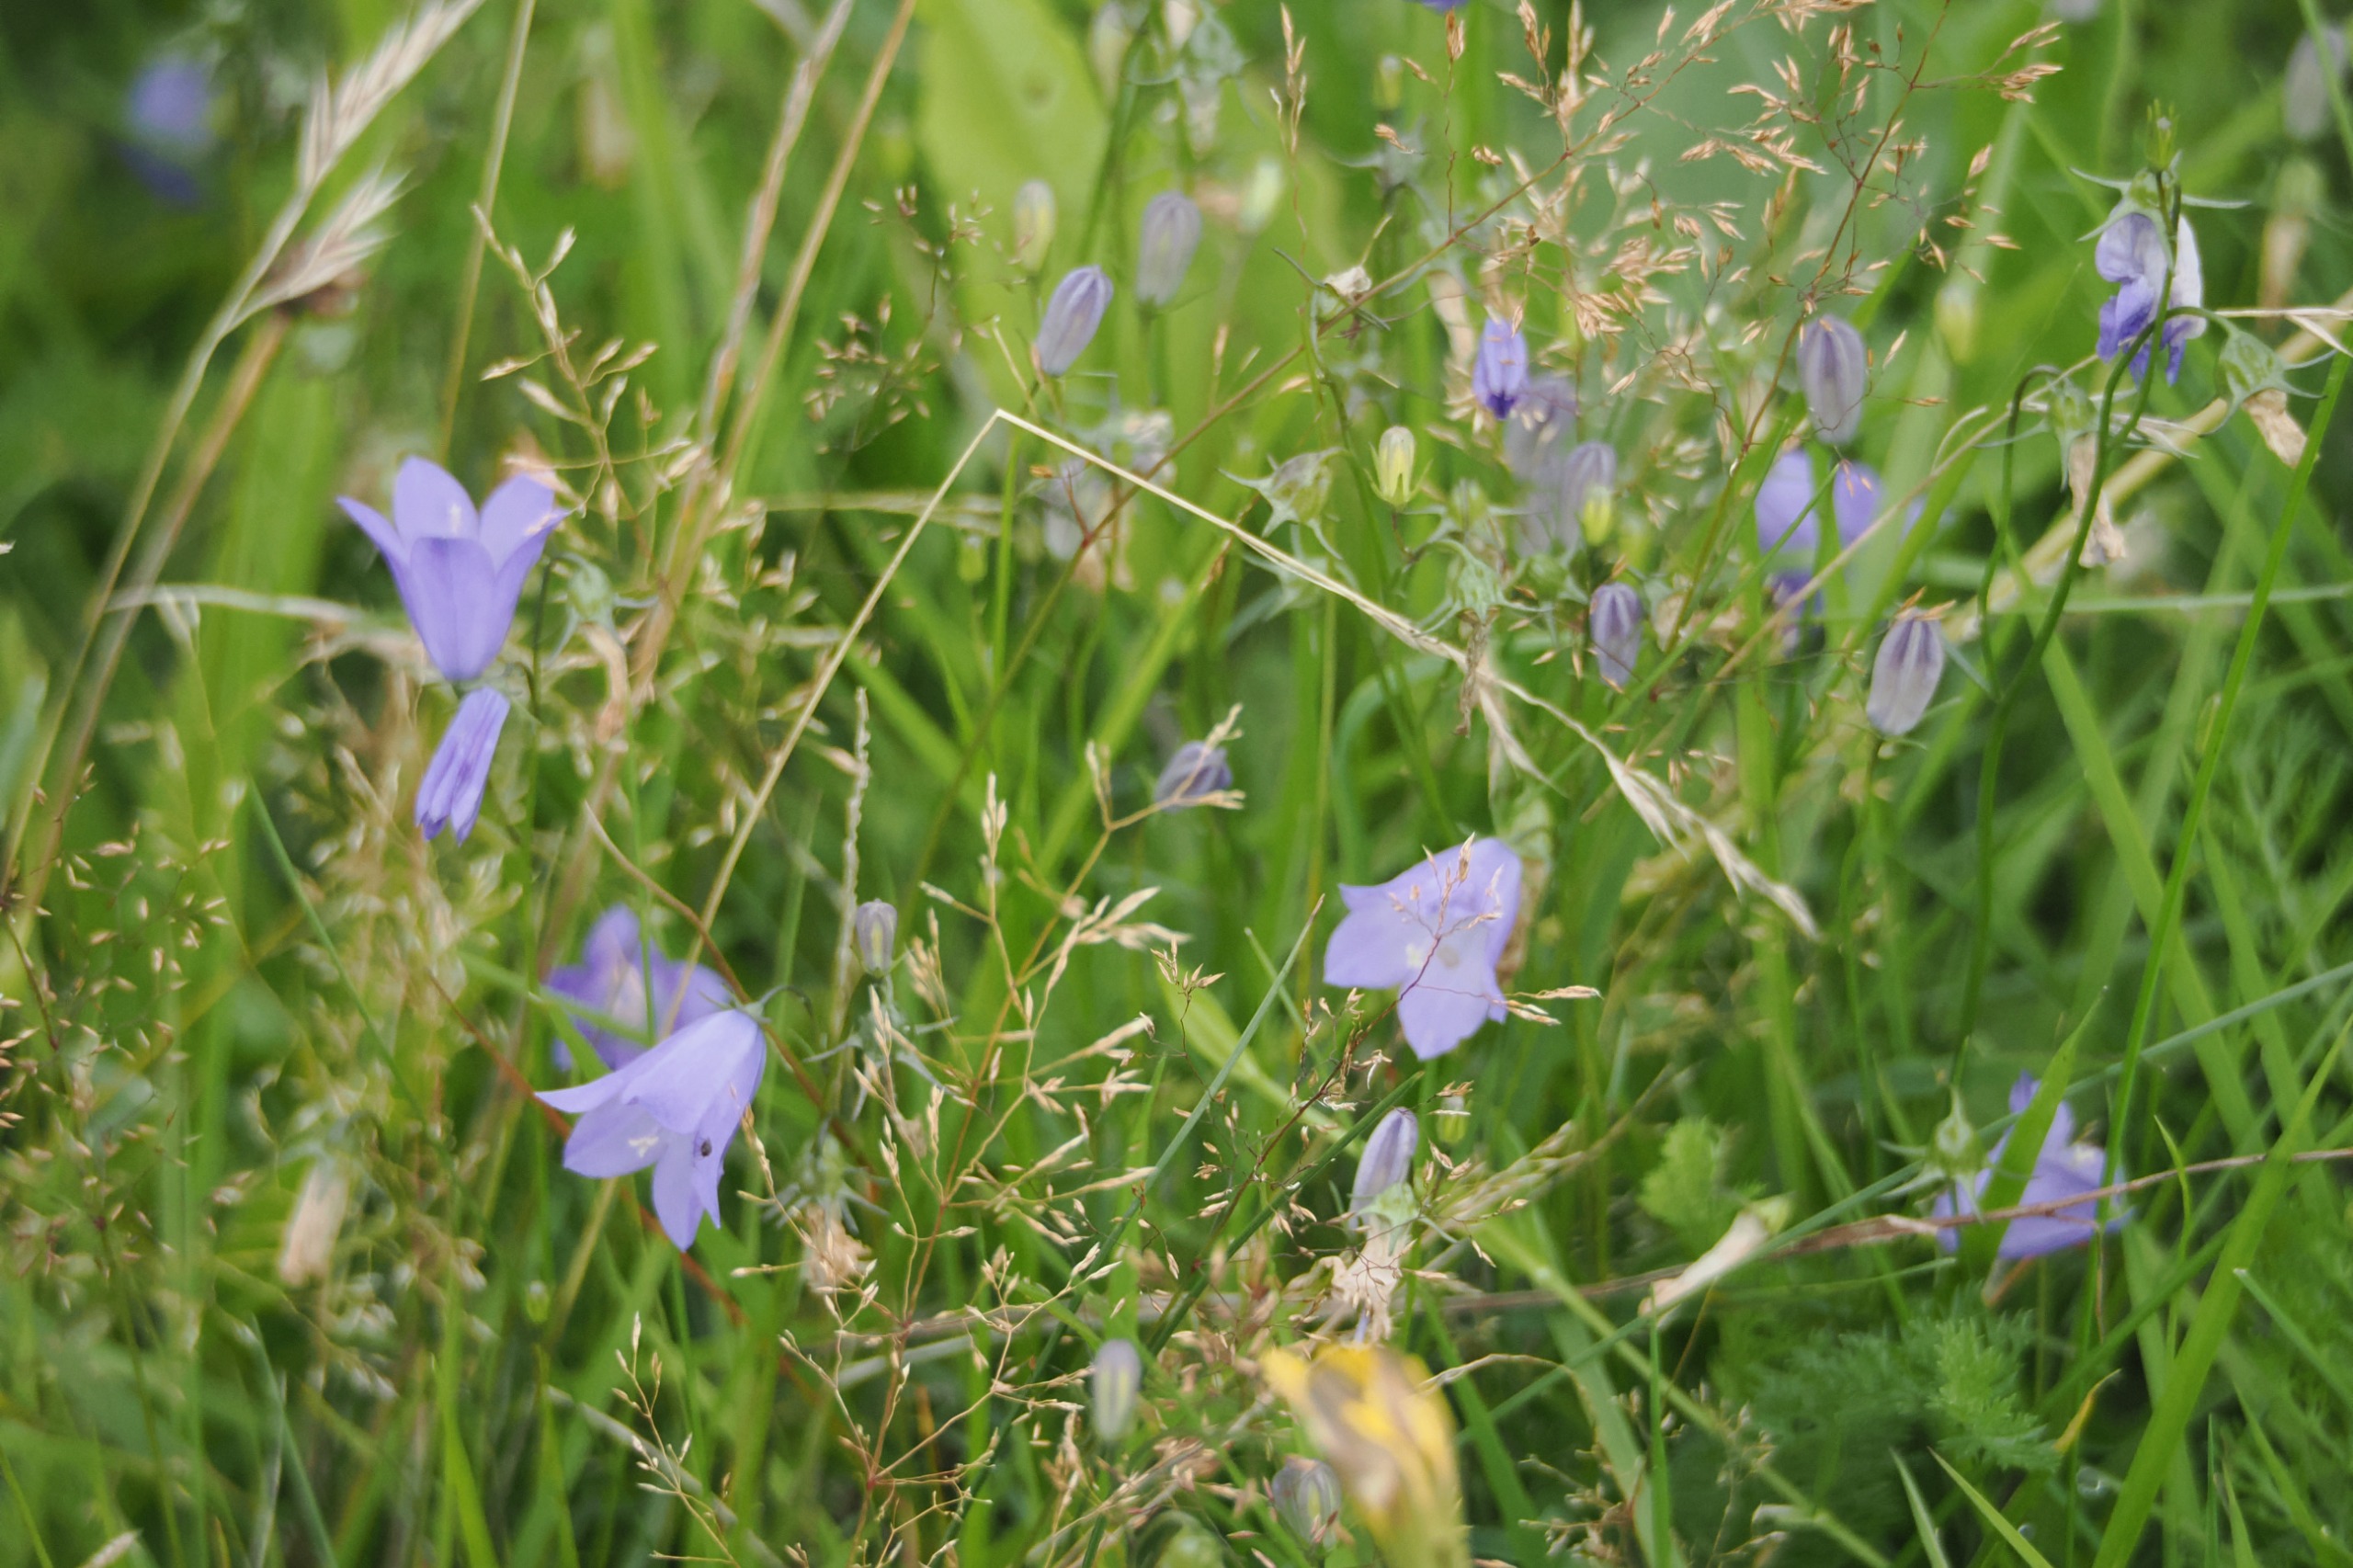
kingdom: Plantae
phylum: Tracheophyta
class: Magnoliopsida
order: Asterales
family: Campanulaceae
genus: Campanula
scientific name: Campanula rotundifolia
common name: Liden klokke
